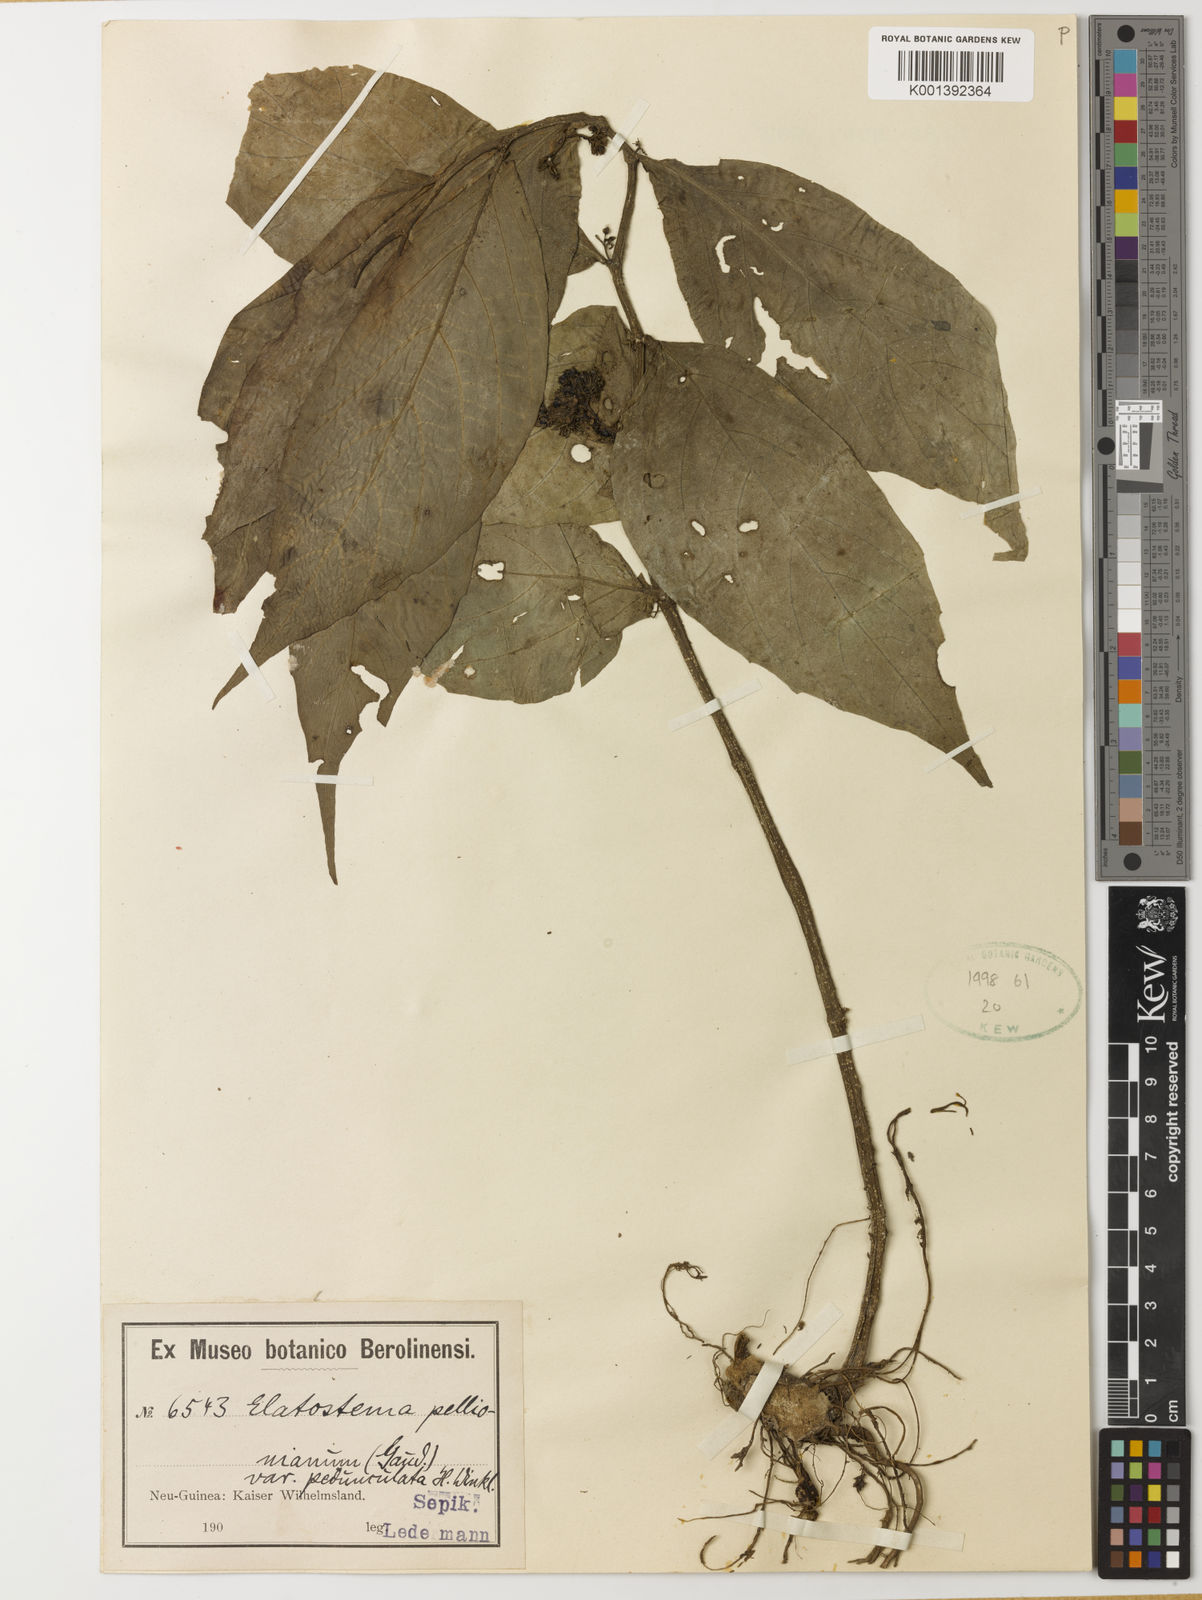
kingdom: Plantae
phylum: Tracheophyta
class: Magnoliopsida
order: Rosales
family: Urticaceae
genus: Elatostema
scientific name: Elatostema sinuatum
